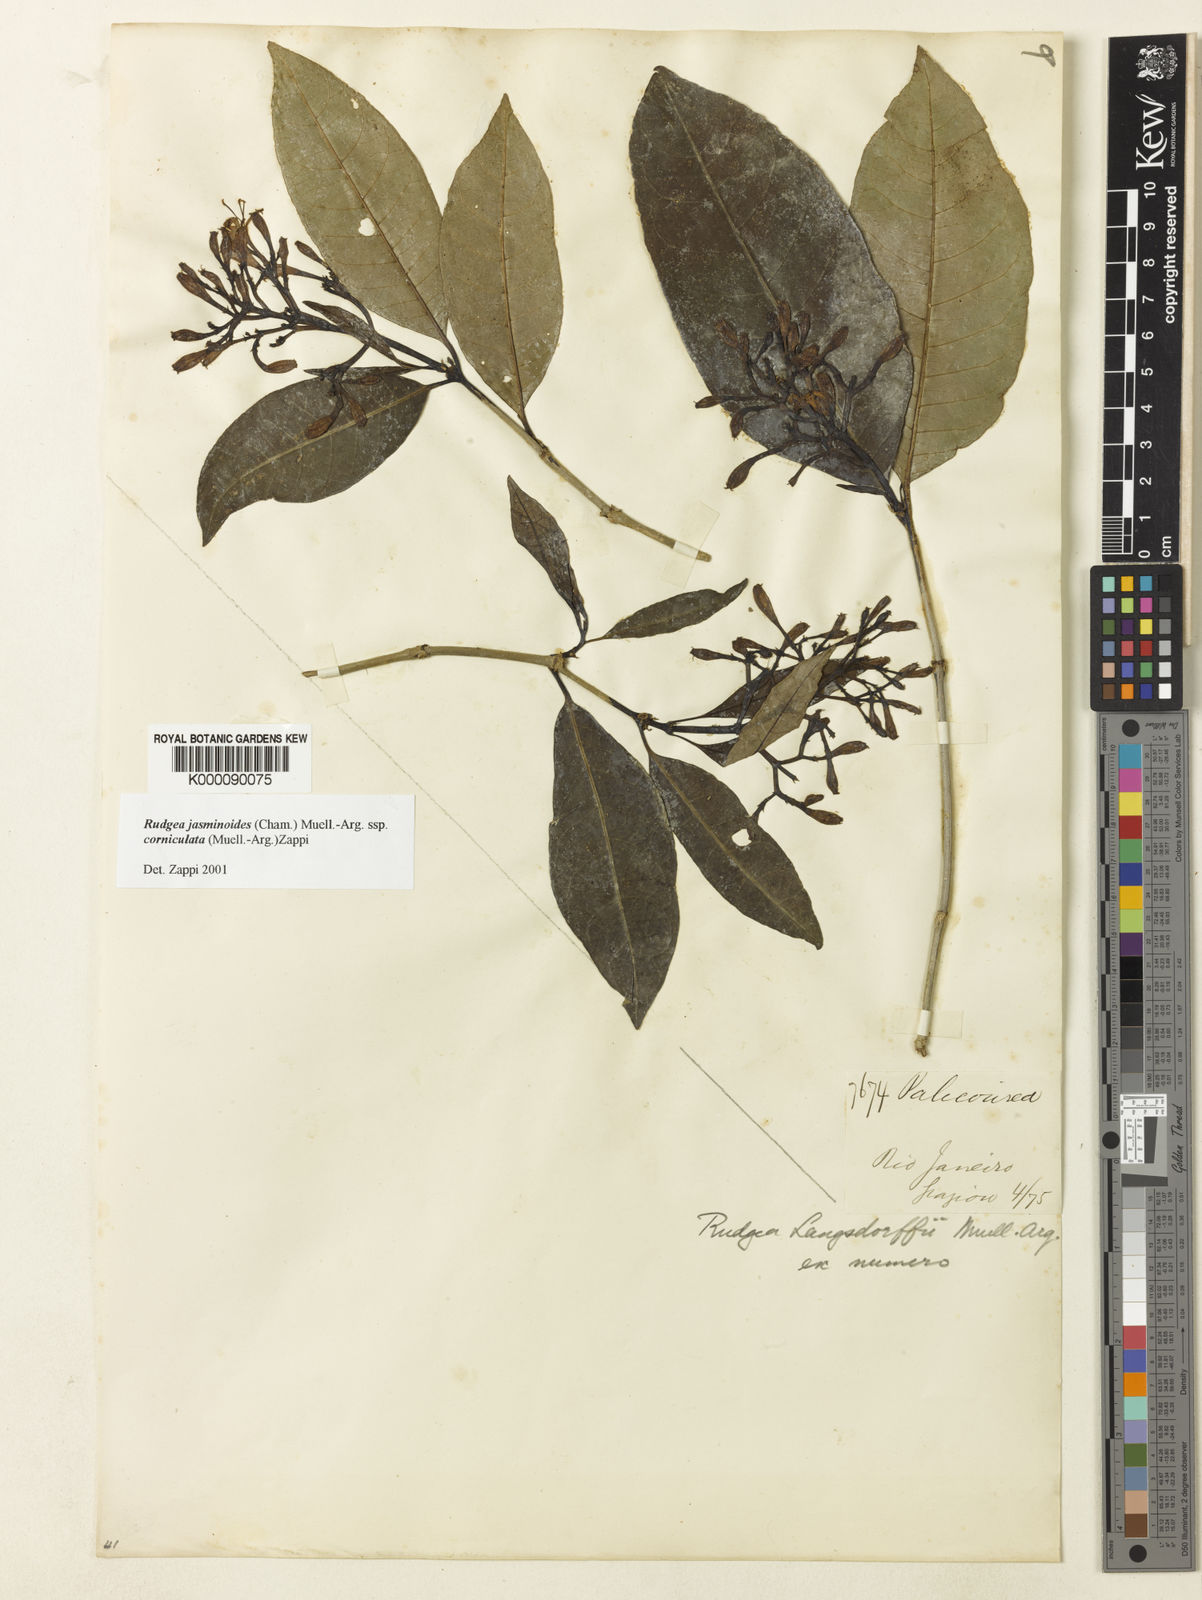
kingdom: Plantae
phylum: Tracheophyta
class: Magnoliopsida
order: Gentianales
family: Rubiaceae
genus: Rudgea
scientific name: Rudgea
